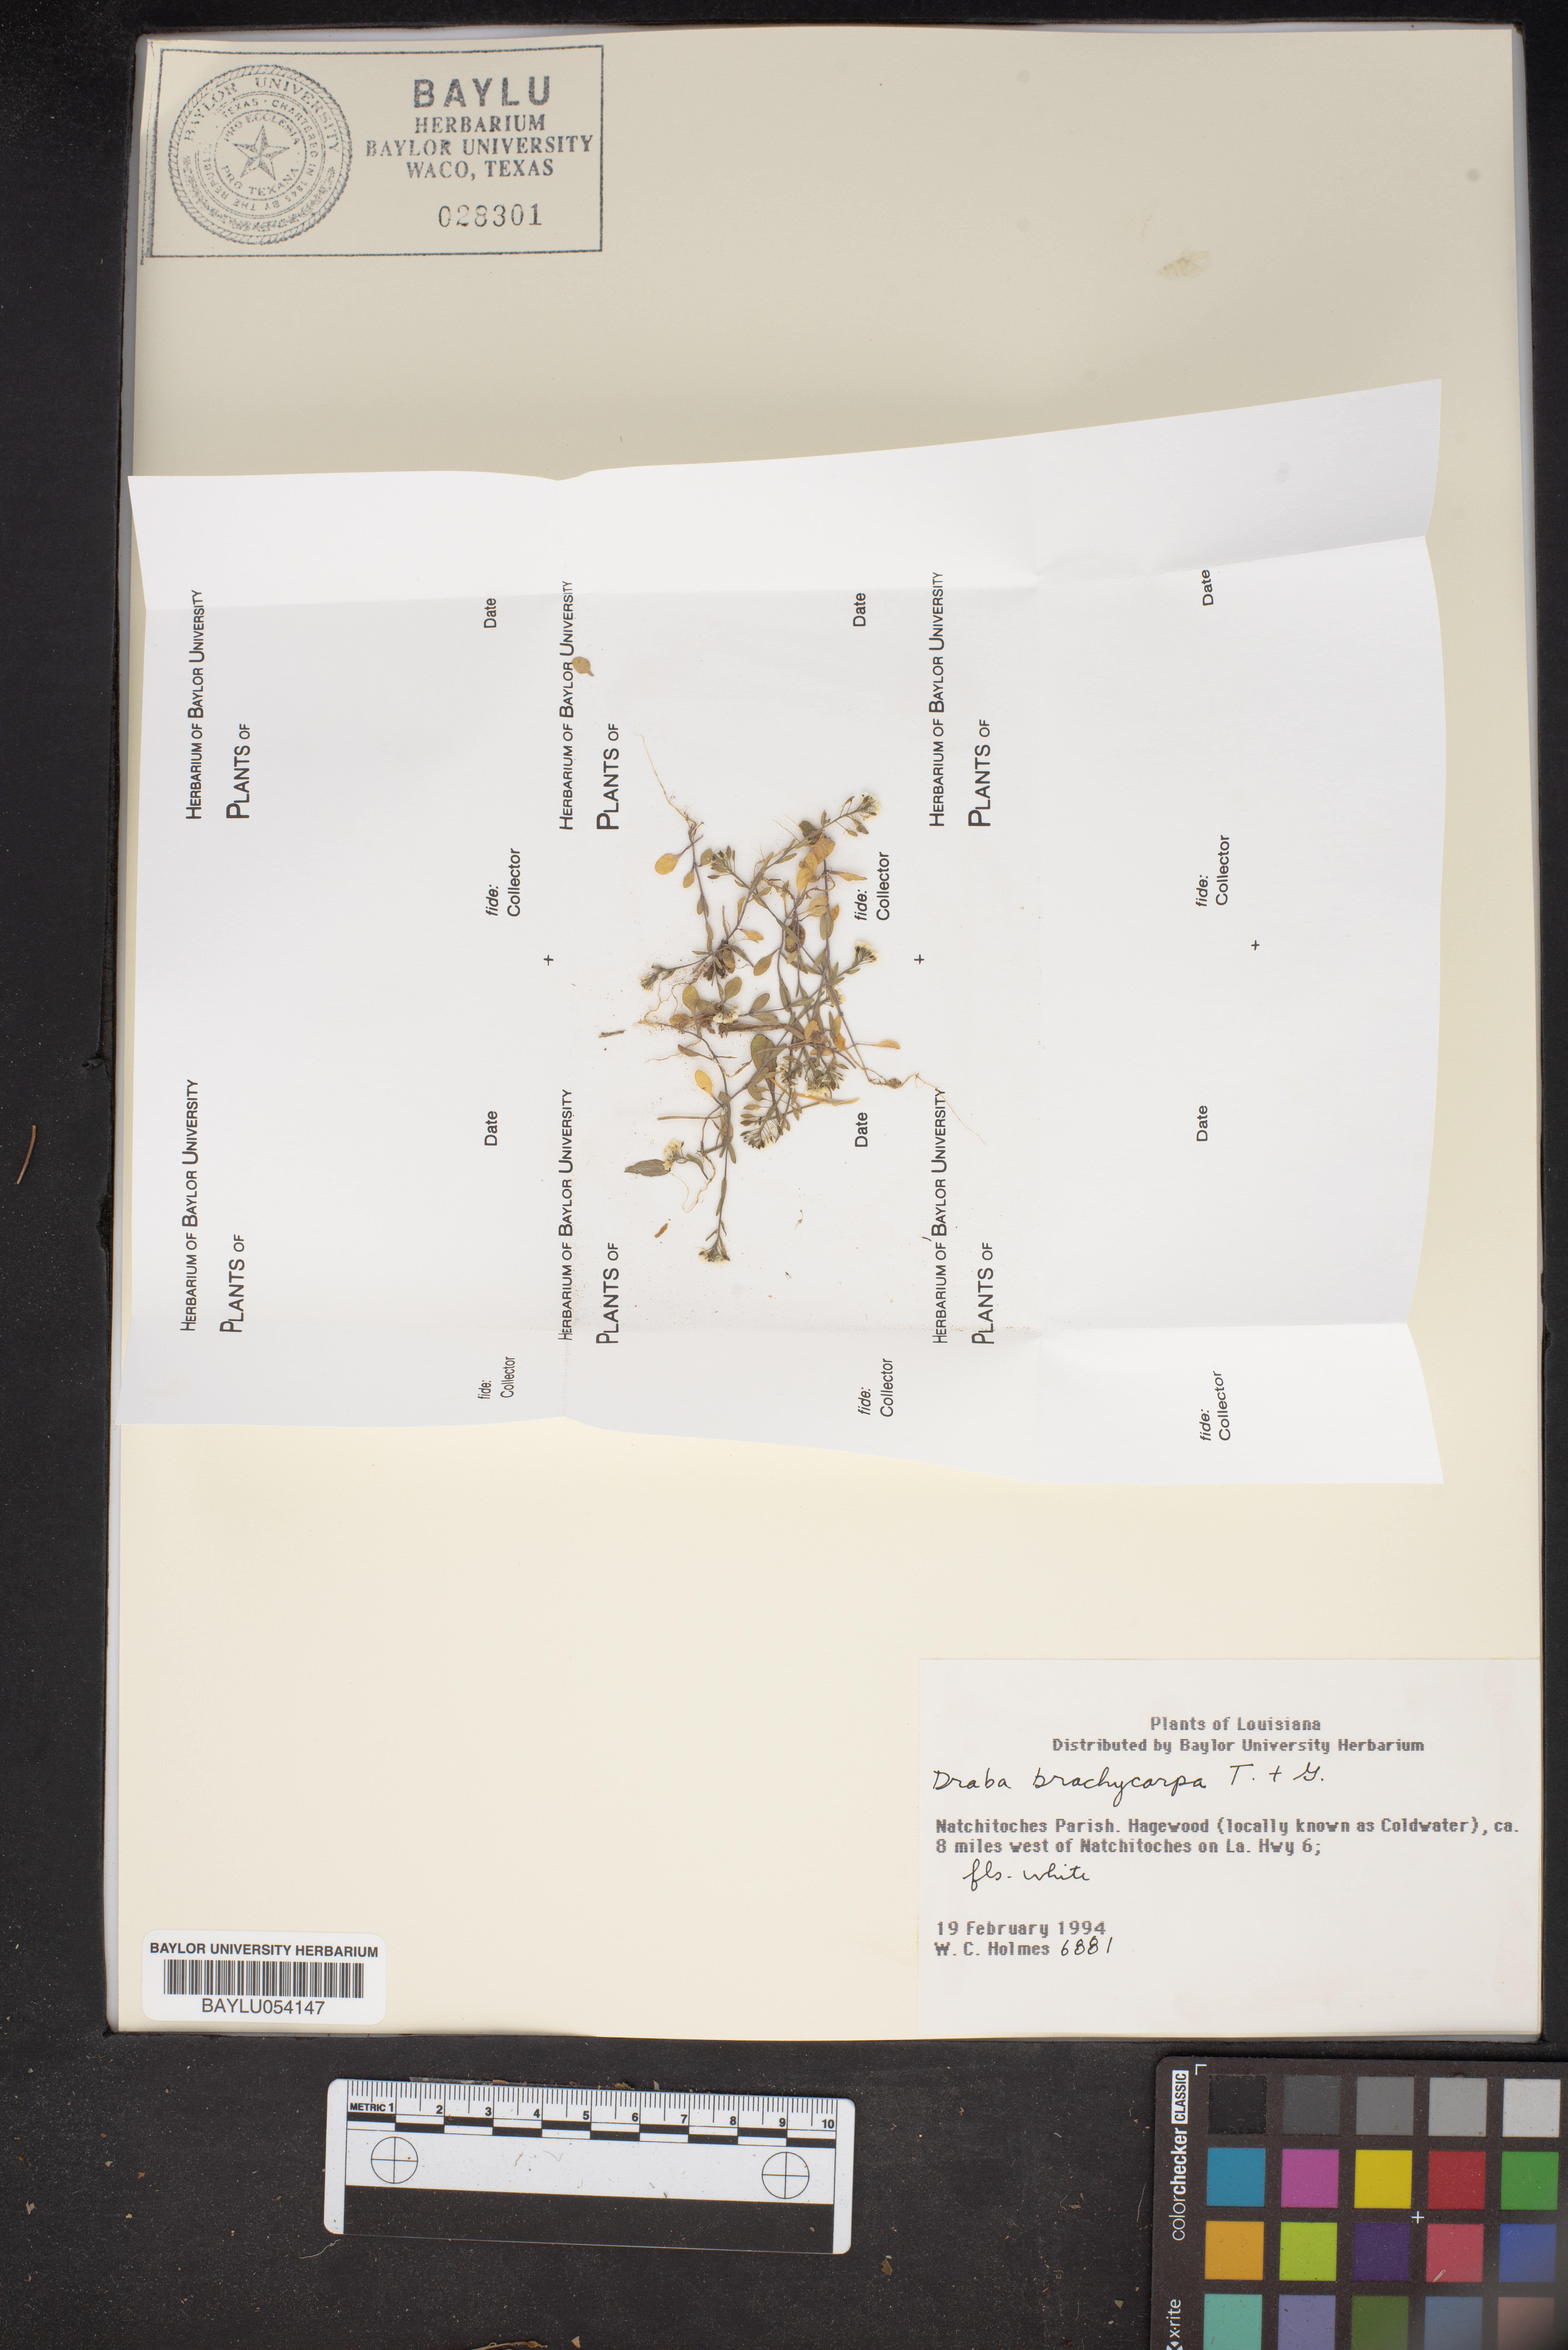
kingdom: Plantae
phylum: Tracheophyta
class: Magnoliopsida
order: Brassicales
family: Brassicaceae
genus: Abdra
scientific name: Abdra brachycarpa
